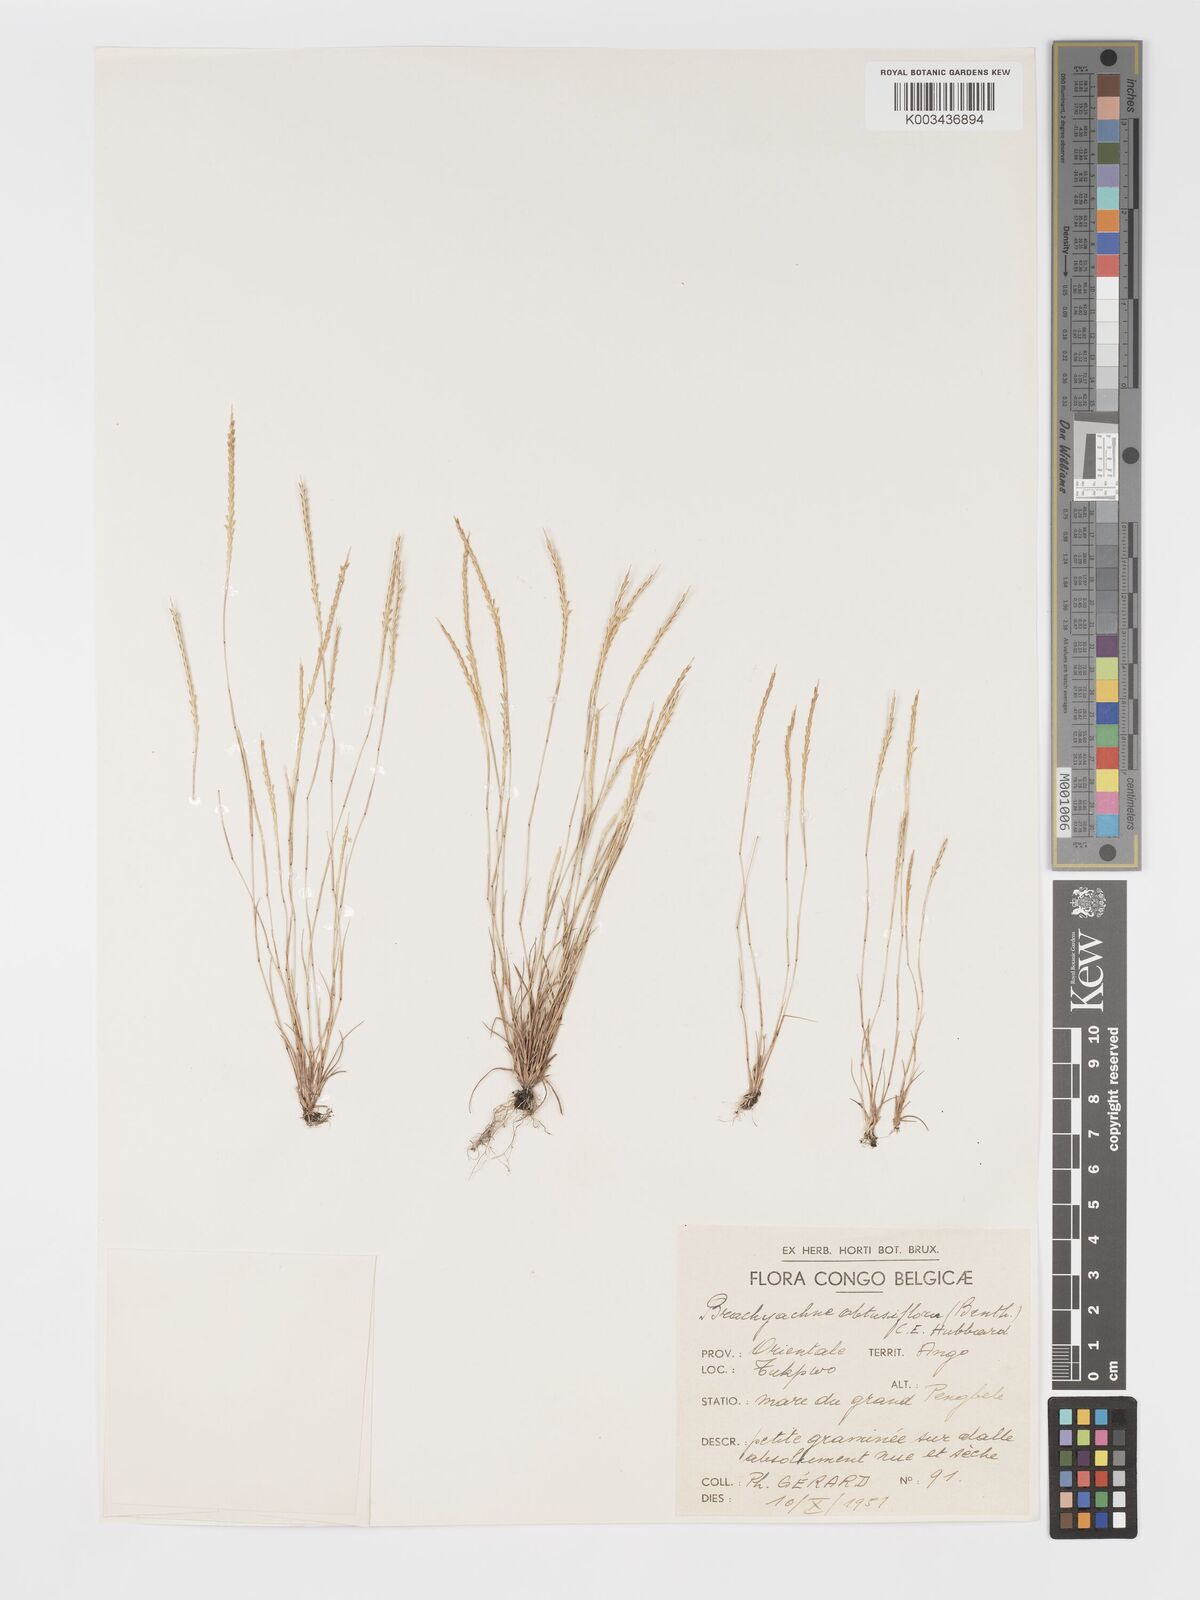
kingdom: Plantae
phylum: Tracheophyta
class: Liliopsida
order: Poales
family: Poaceae
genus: Micrachne
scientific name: Micrachne obtusiflora
